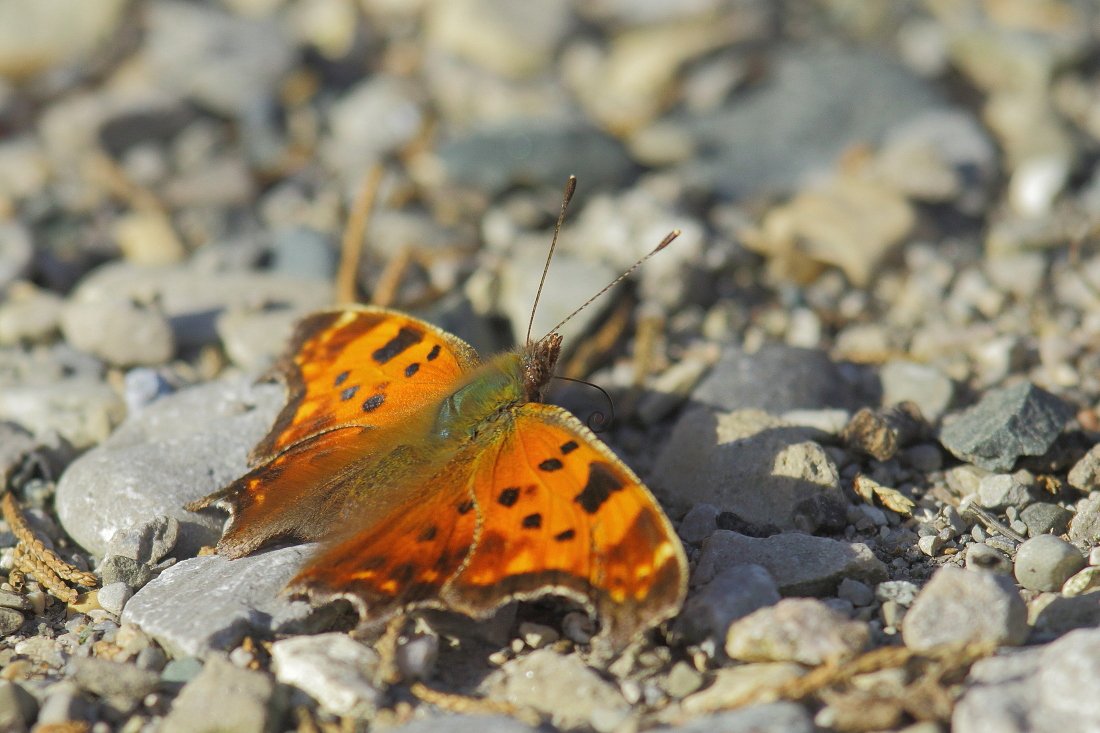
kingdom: Animalia
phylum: Arthropoda
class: Insecta
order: Lepidoptera
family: Nymphalidae
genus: Polygonia
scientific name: Polygonia comma
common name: Eastern Comma
